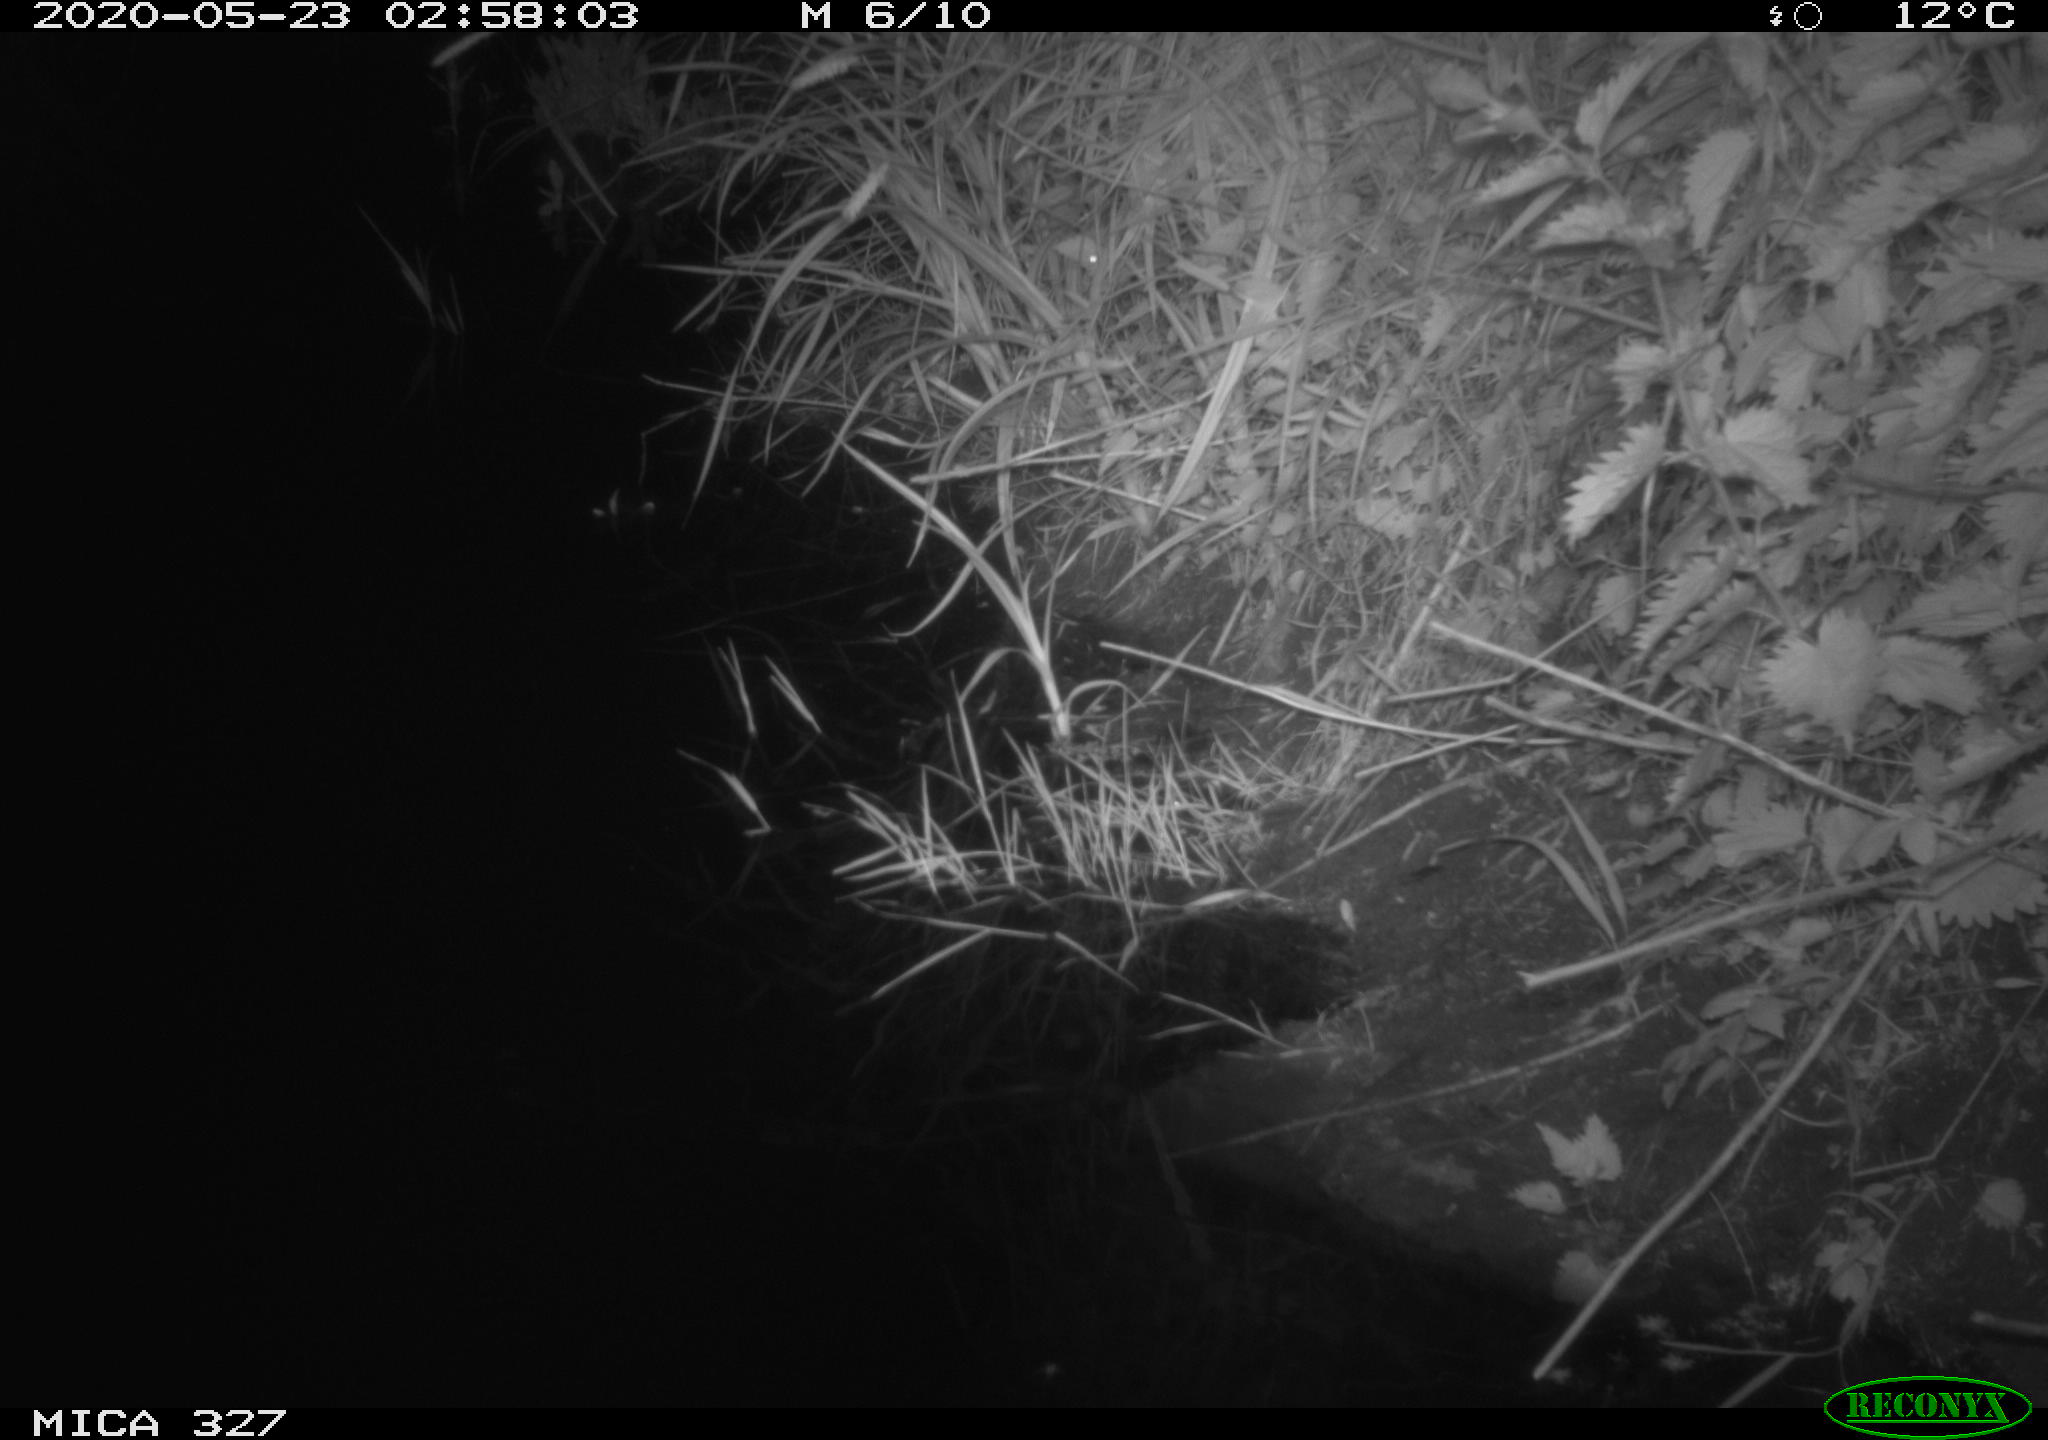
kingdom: Animalia
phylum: Chordata
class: Mammalia
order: Rodentia
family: Muridae
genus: Rattus
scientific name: Rattus norvegicus
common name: Brown rat
